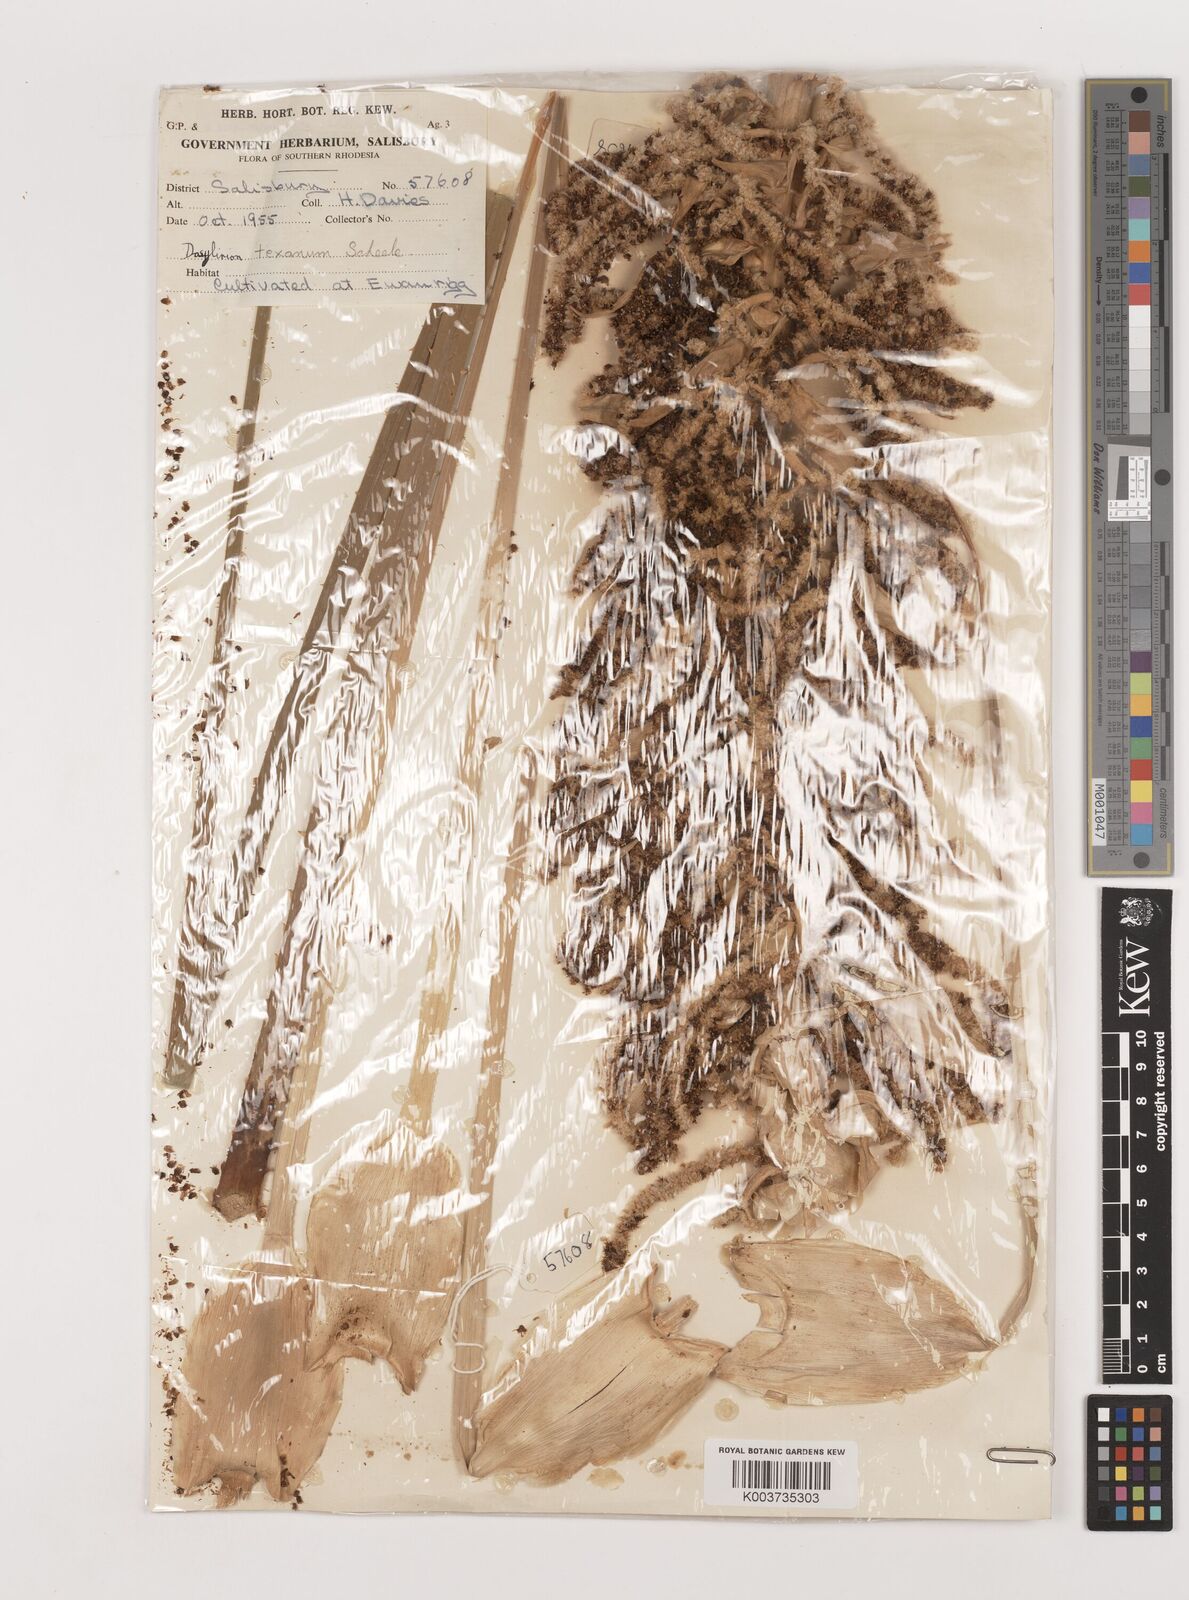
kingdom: Plantae
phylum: Tracheophyta
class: Liliopsida
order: Asparagales
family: Asparagaceae
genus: Dasylirion
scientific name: Dasylirion texanum
